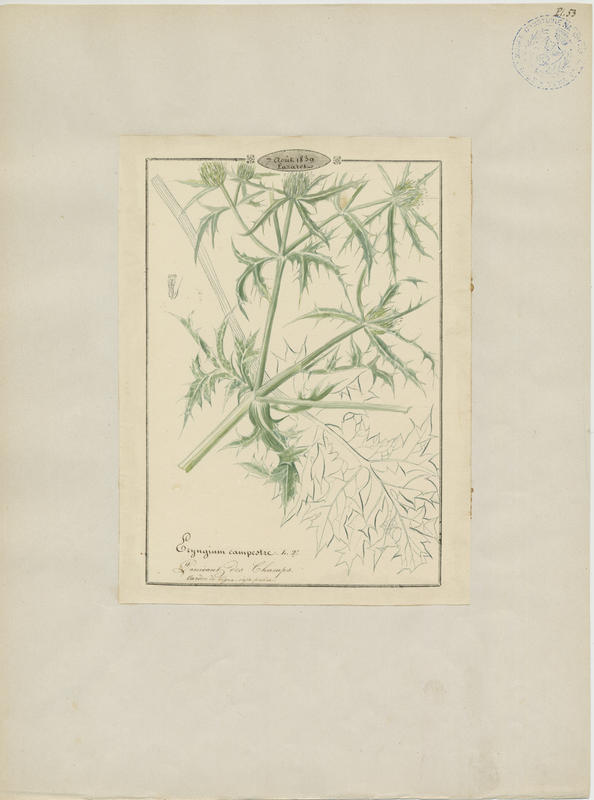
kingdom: Plantae
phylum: Tracheophyta
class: Magnoliopsida
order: Apiales
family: Apiaceae
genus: Eryngium
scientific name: Eryngium campestre
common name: Field eryngo
